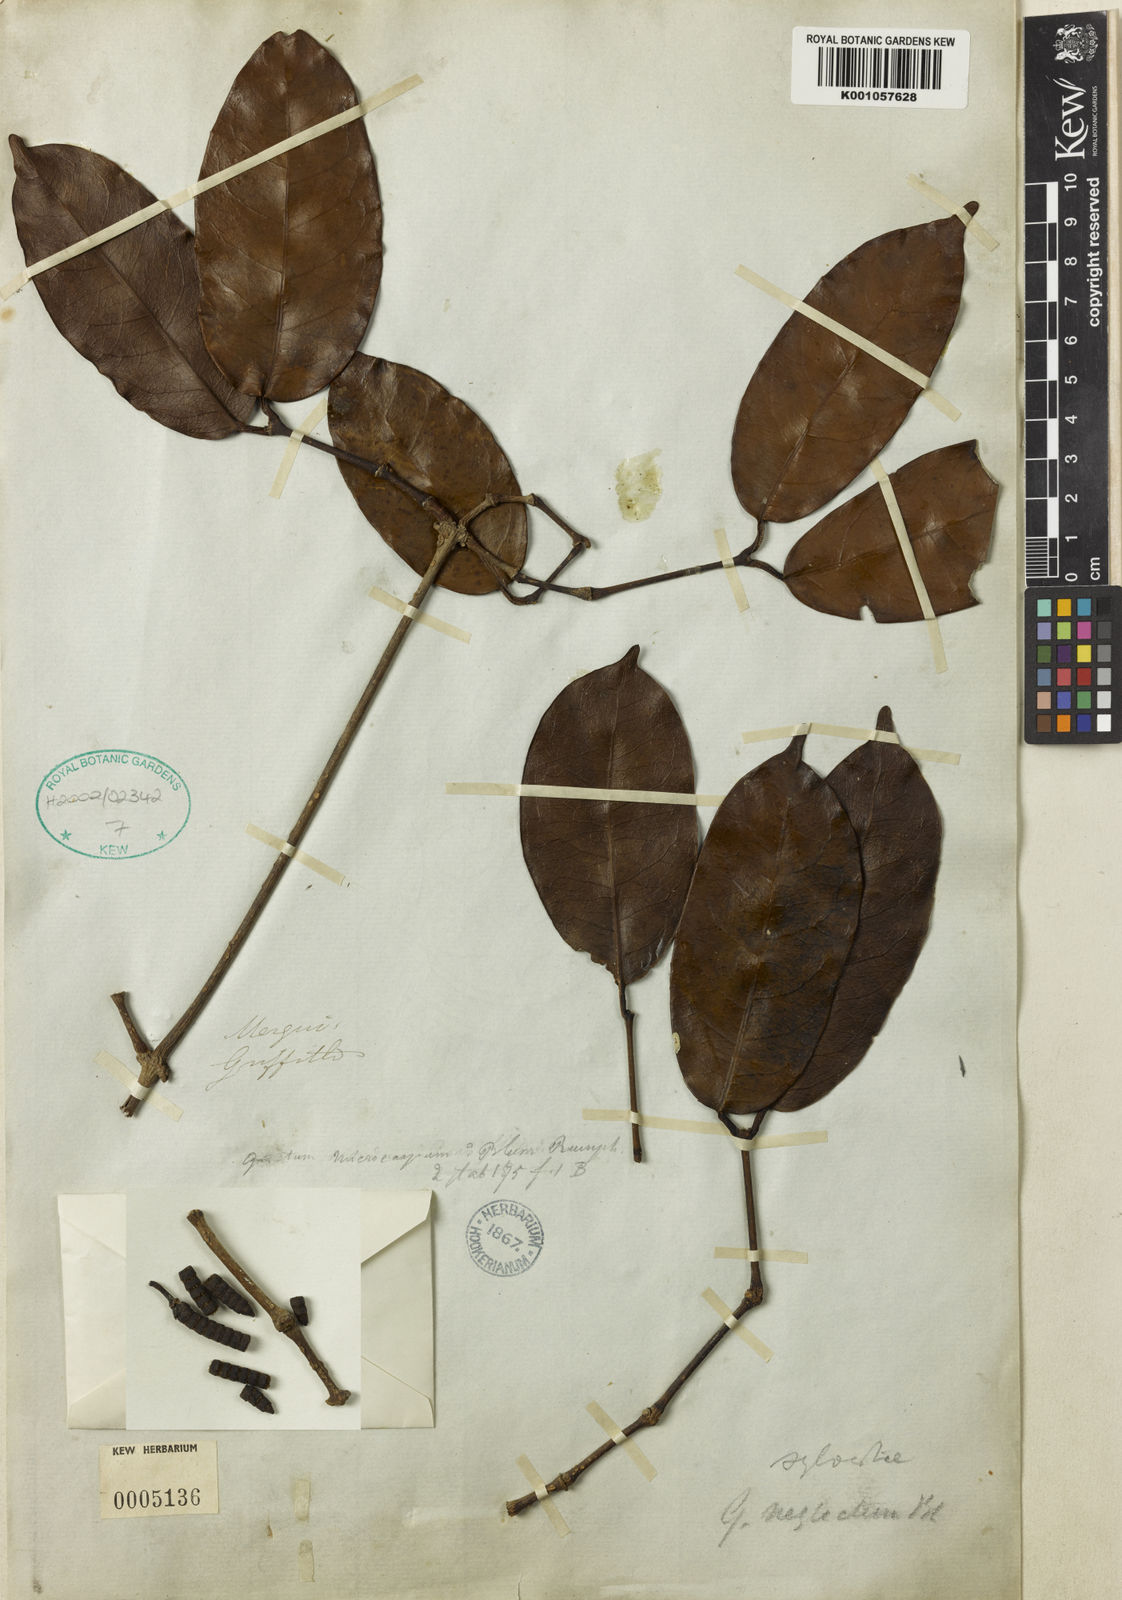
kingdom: Plantae
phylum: Tracheophyta
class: Gnetopsida
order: Gnetales
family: Gnetaceae
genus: Gnetum
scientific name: Gnetum
